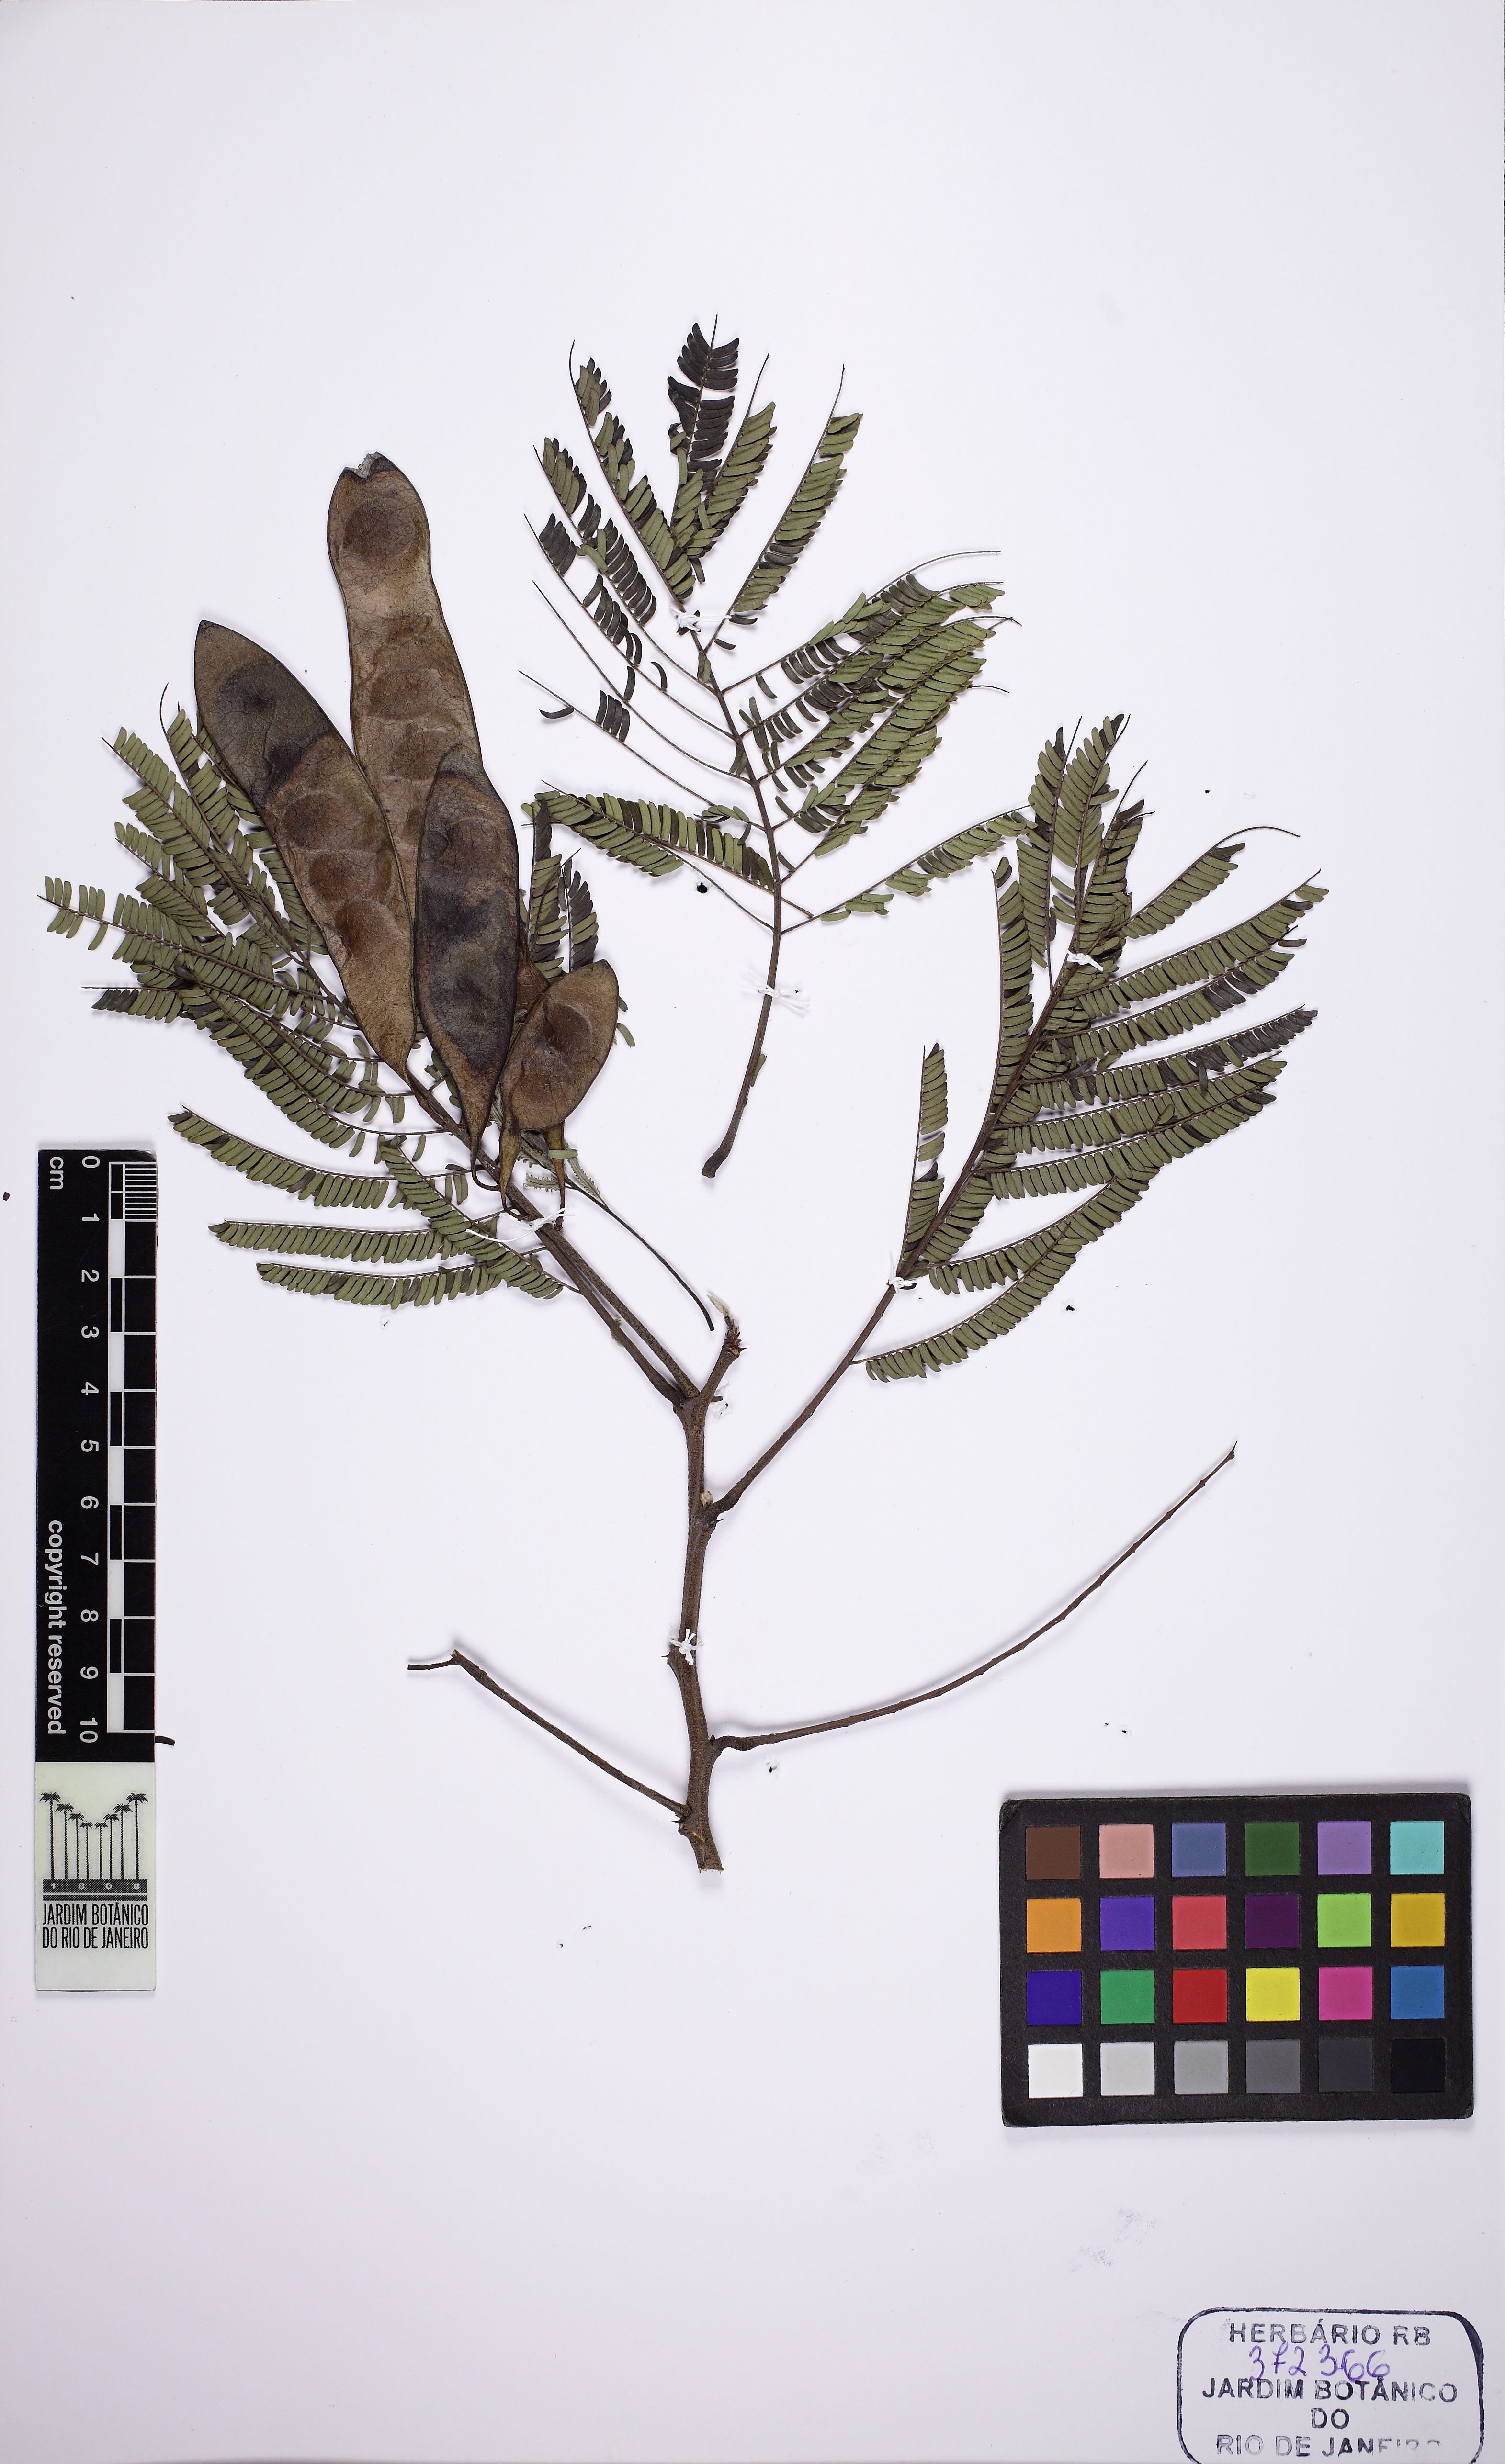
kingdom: Plantae
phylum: Tracheophyta
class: Magnoliopsida
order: Fabales
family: Fabaceae
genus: Lachesiodendron
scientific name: Lachesiodendron viridiflorum
